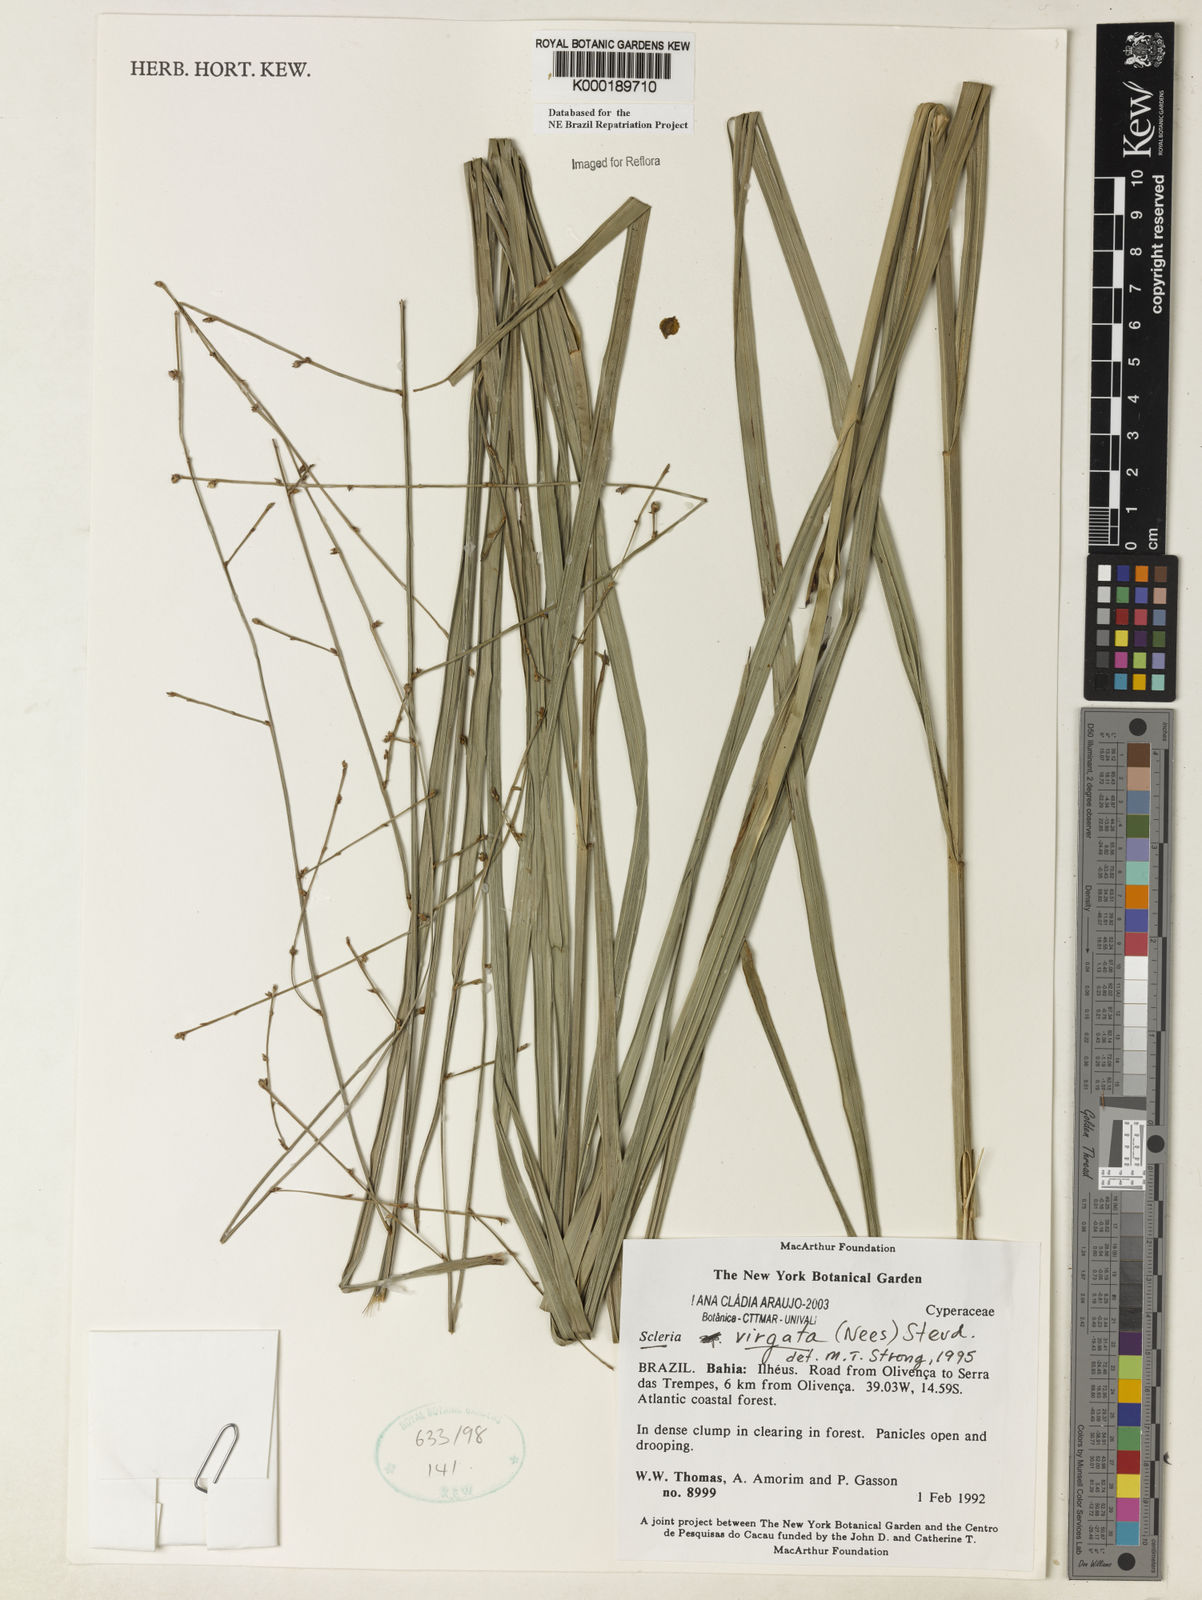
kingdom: Plantae
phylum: Tracheophyta
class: Liliopsida
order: Poales
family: Cyperaceae
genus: Scleria
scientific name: Scleria virgata
